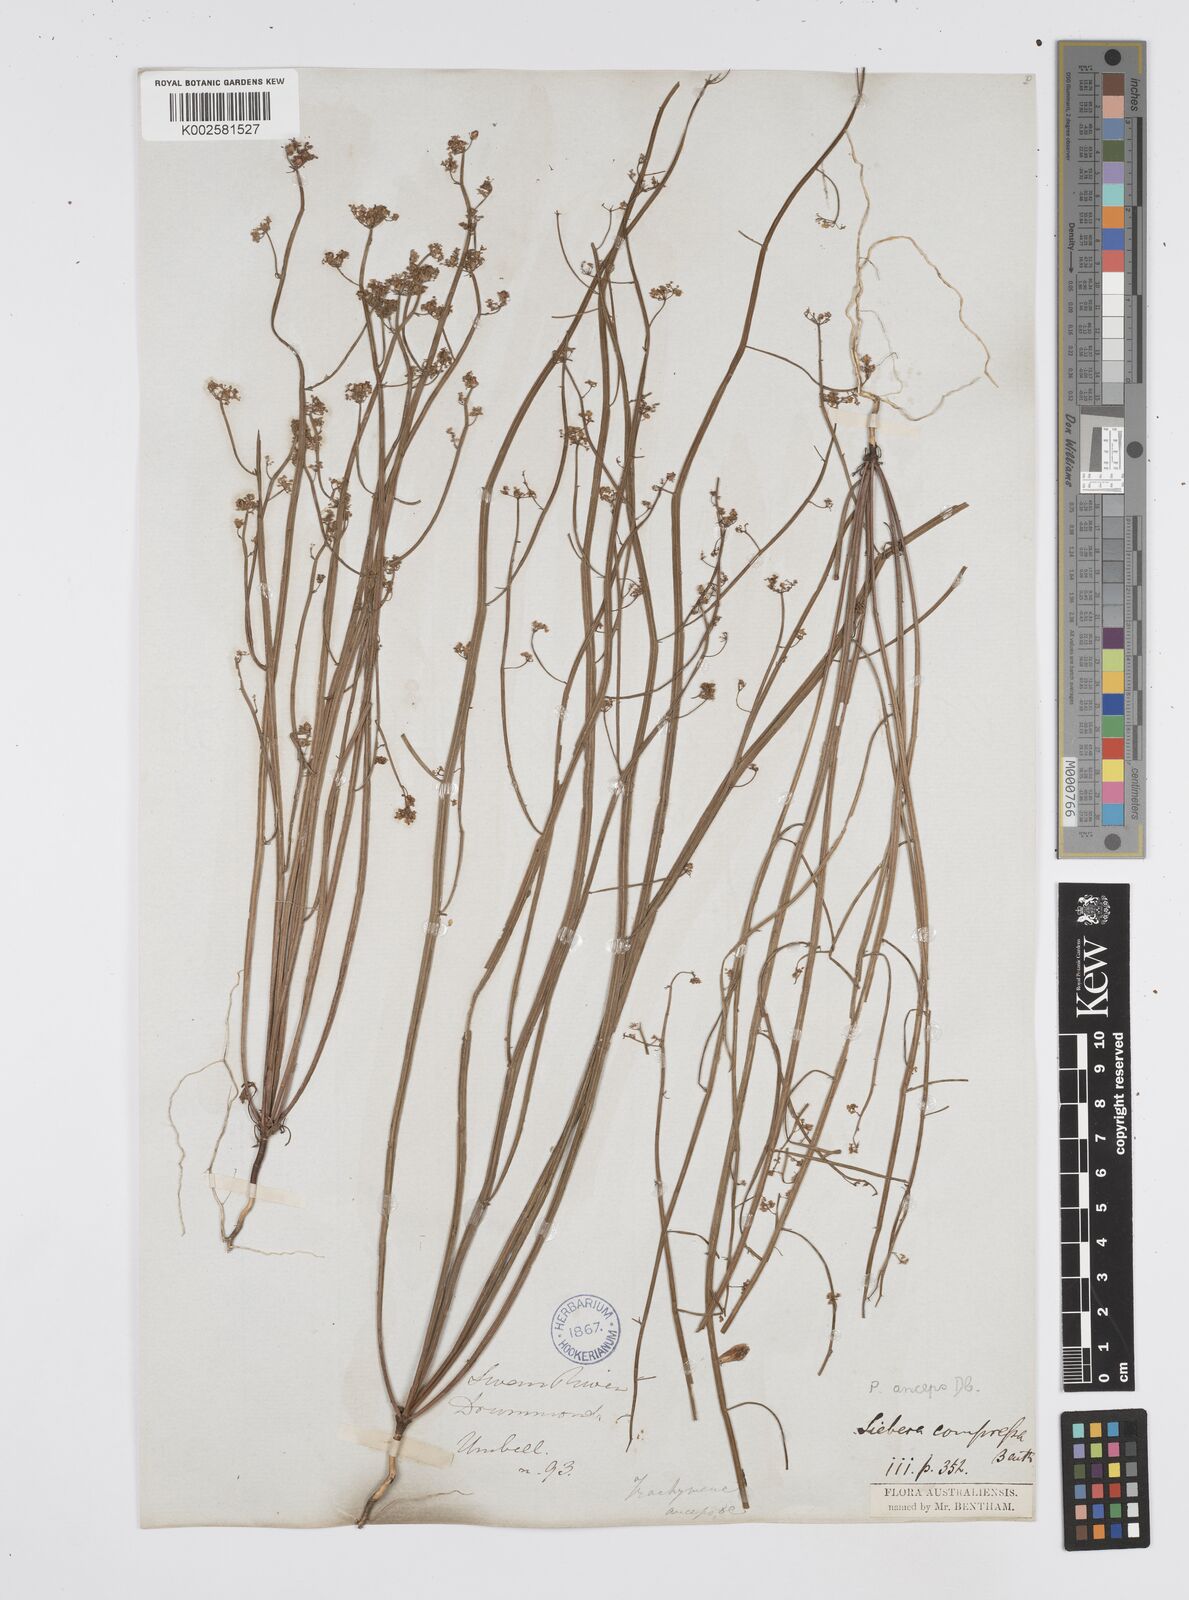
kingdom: Plantae
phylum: Tracheophyta
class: Magnoliopsida
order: Apiales
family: Apiaceae
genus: Centella
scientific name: Centella
